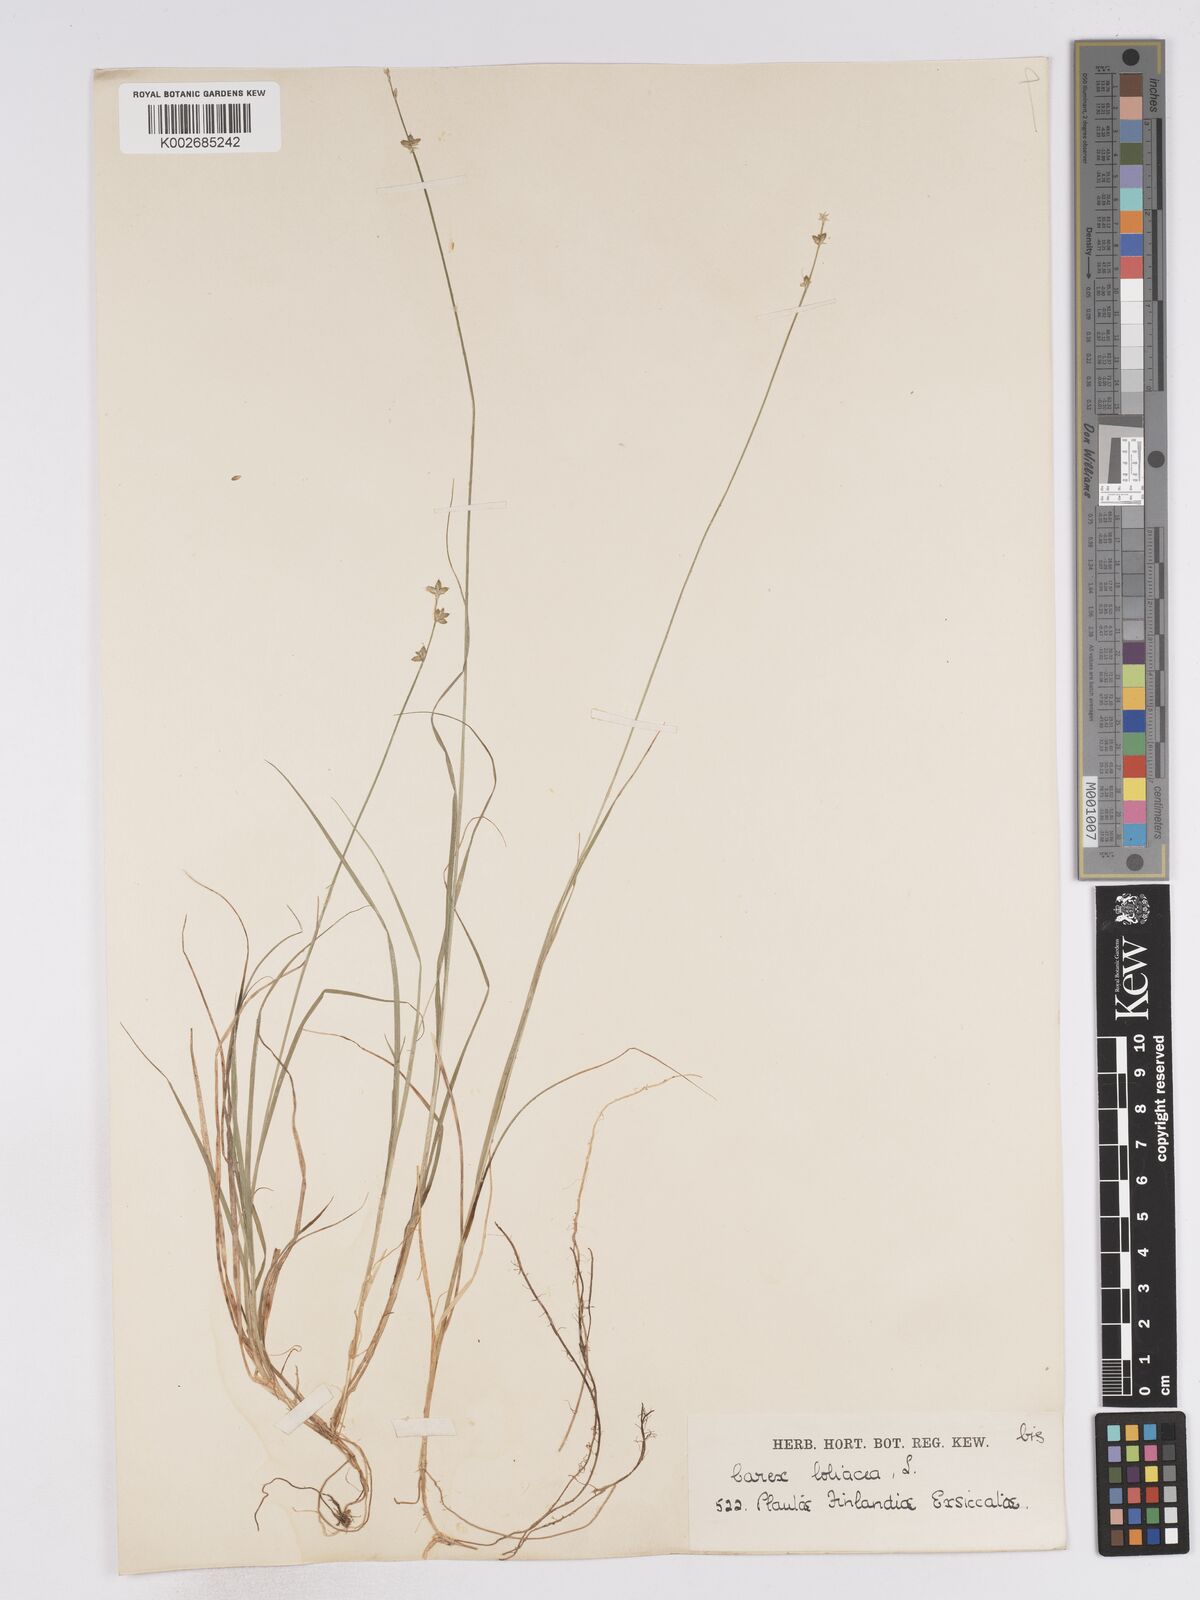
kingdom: Plantae
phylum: Tracheophyta
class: Liliopsida
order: Poales
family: Cyperaceae
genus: Carex
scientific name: Carex loliacea
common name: Ryegrass sedge
